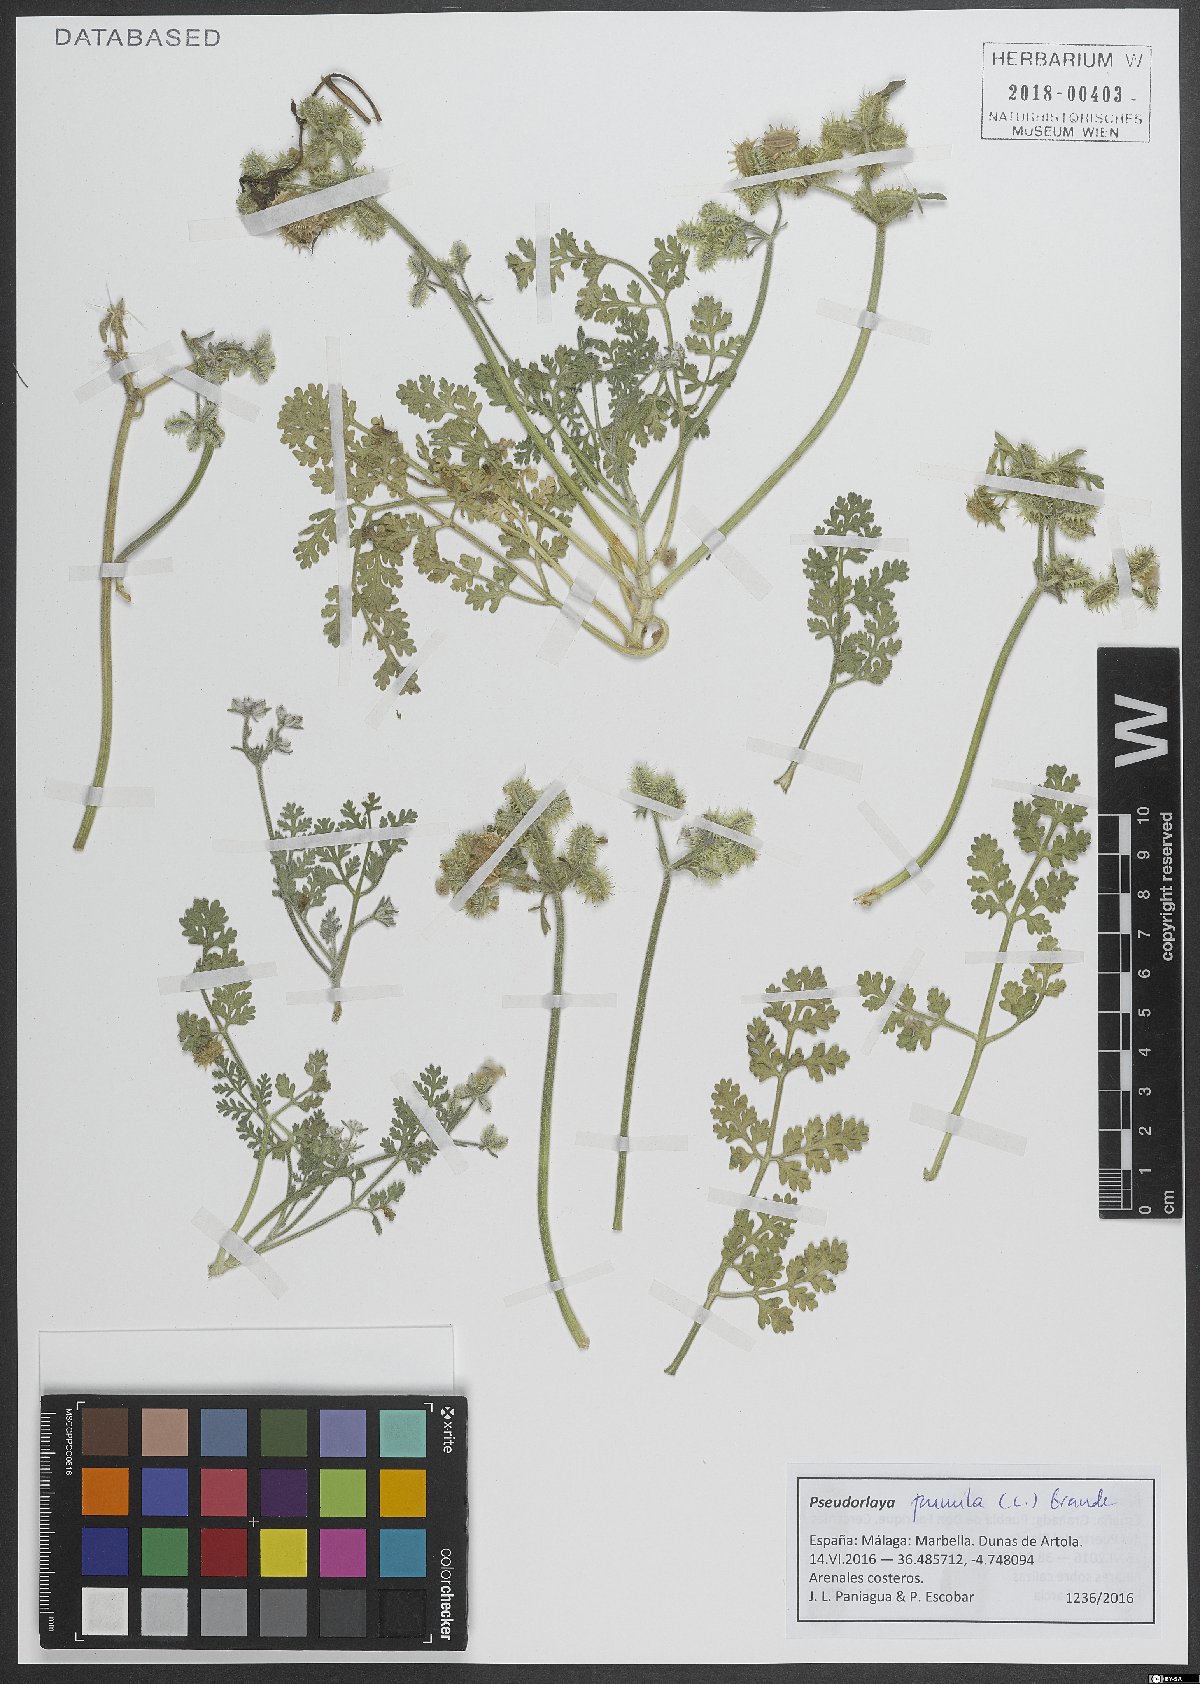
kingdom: Plantae
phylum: Tracheophyta
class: Magnoliopsida
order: Apiales
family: Apiaceae
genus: Daucus
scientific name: Daucus pumilus
